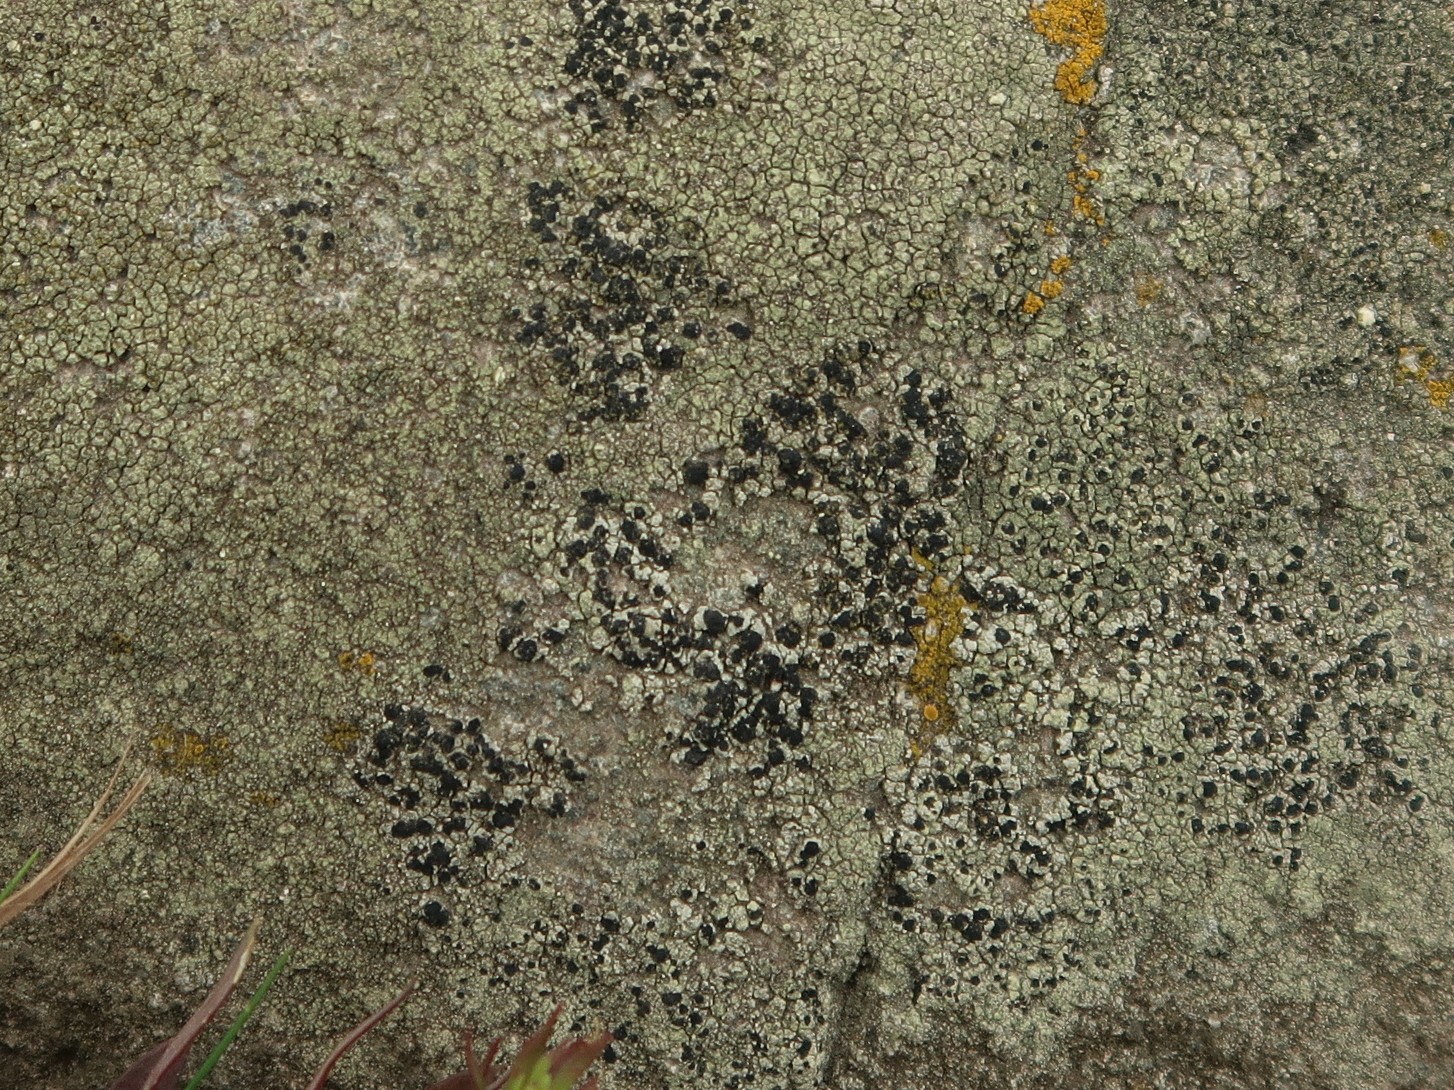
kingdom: Fungi
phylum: Ascomycota
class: Lecanoromycetes
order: Lecanorales
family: Lecanoraceae
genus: Lecidella
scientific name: Lecidella scabra
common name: skurvet skivelav
